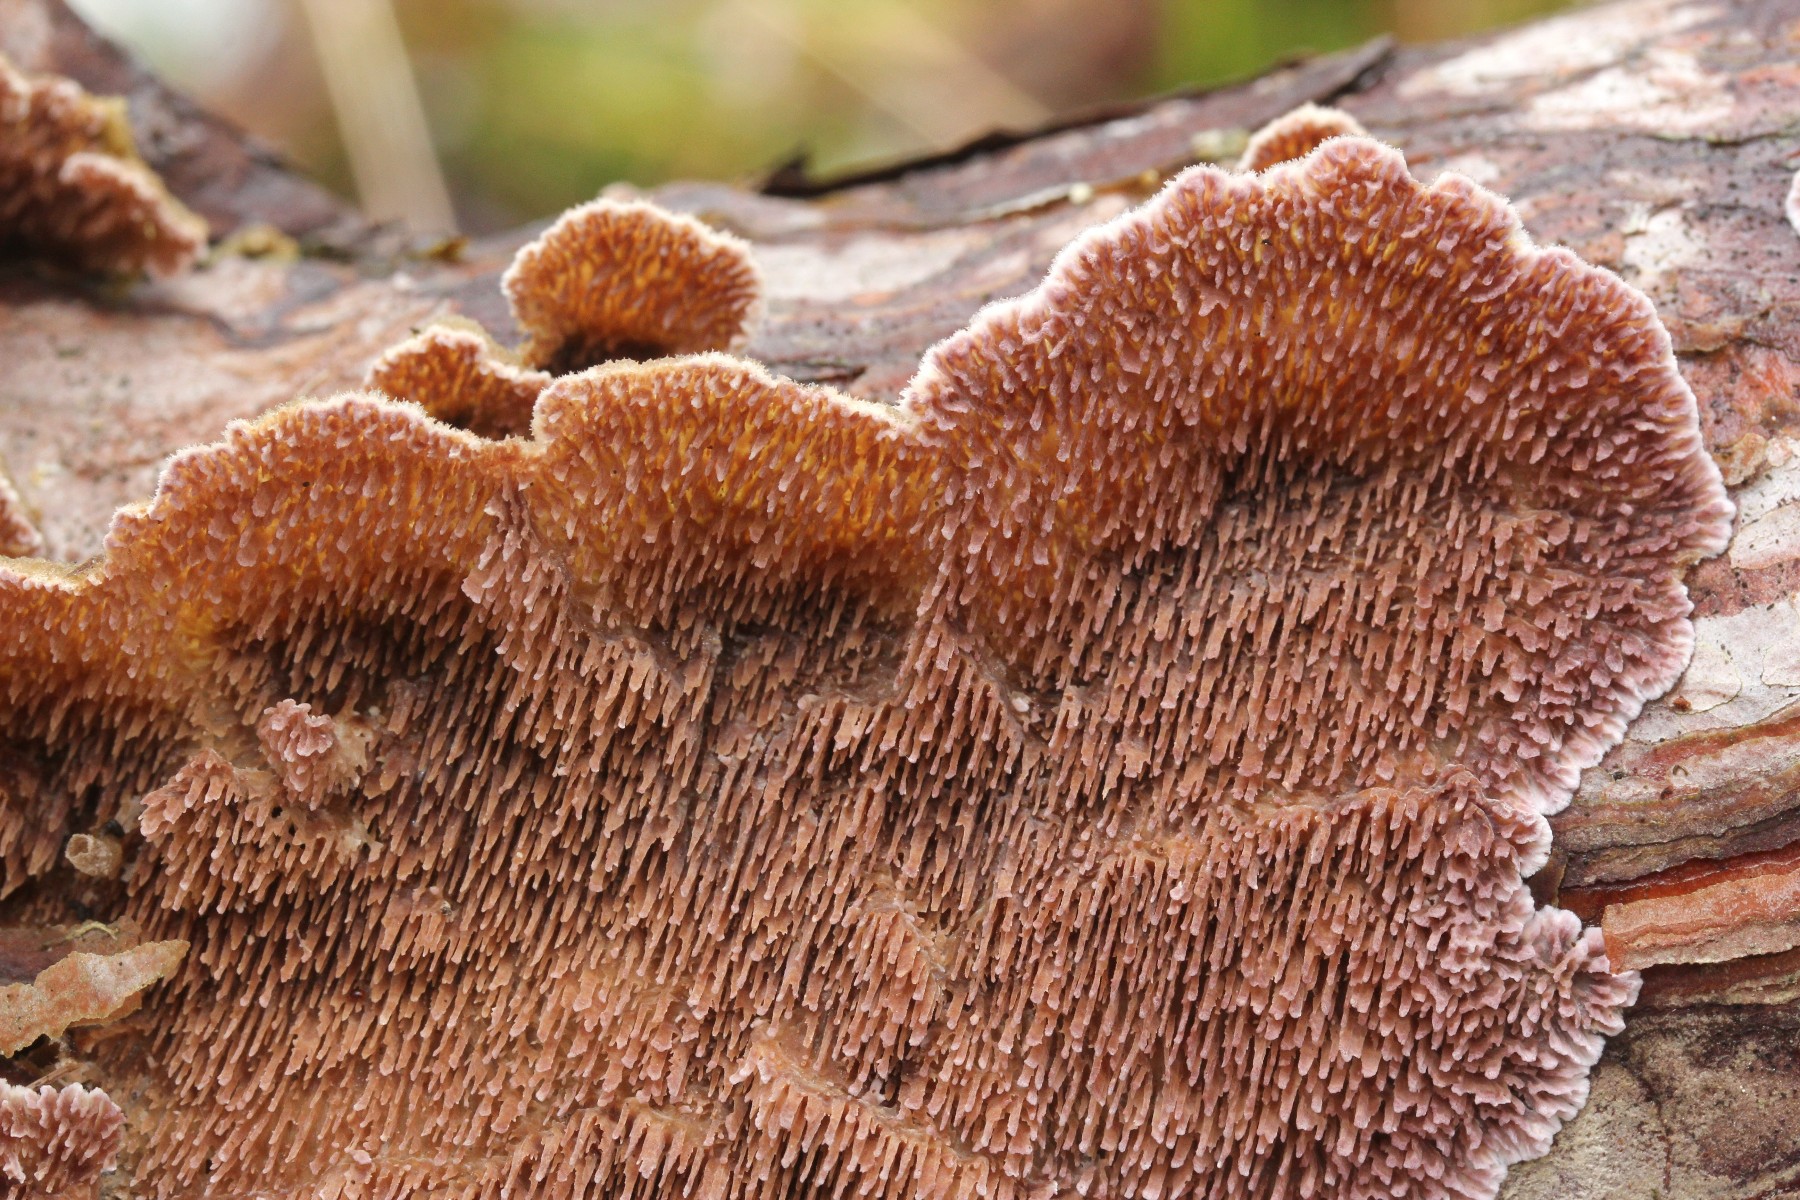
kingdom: Fungi
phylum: Basidiomycota
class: Agaricomycetes
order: Hymenochaetales
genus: Trichaptum
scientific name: Trichaptum fuscoviolaceum
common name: tandet violporesvamp
